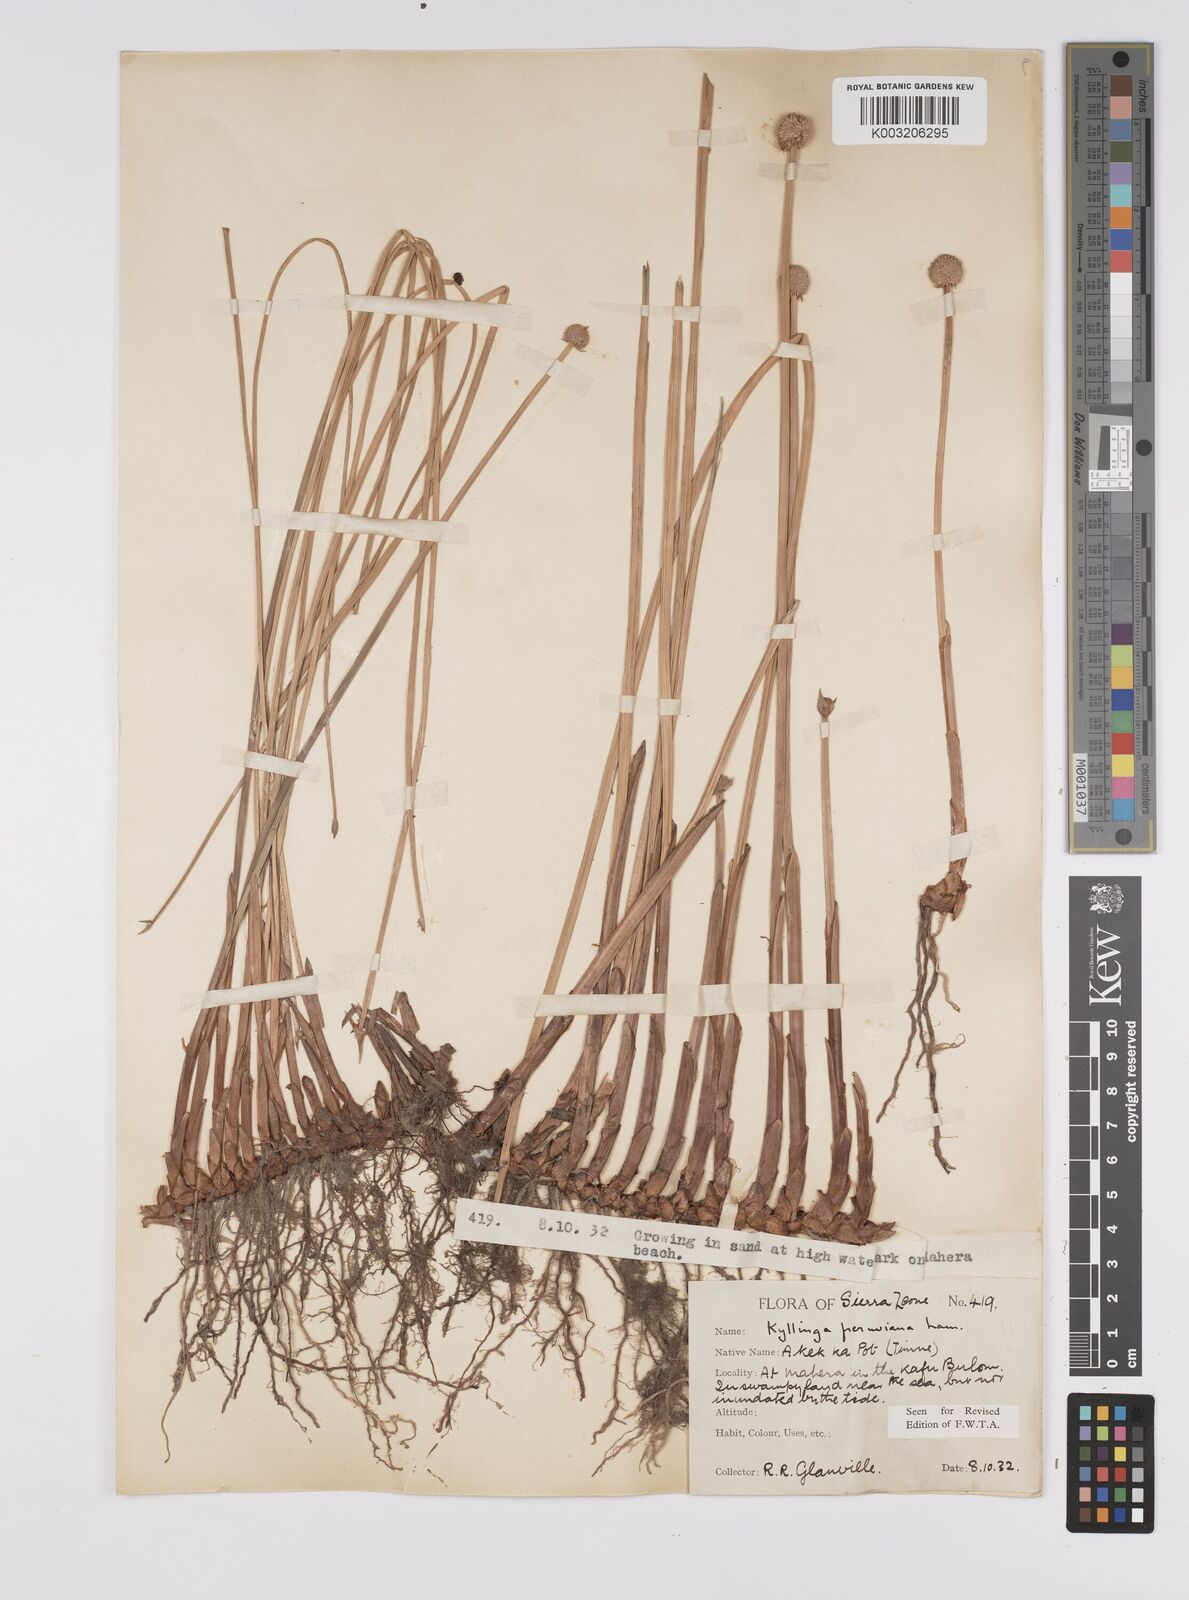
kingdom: Plantae
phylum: Tracheophyta
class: Liliopsida
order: Poales
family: Cyperaceae
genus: Cyperus
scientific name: Cyperus obtusatus
